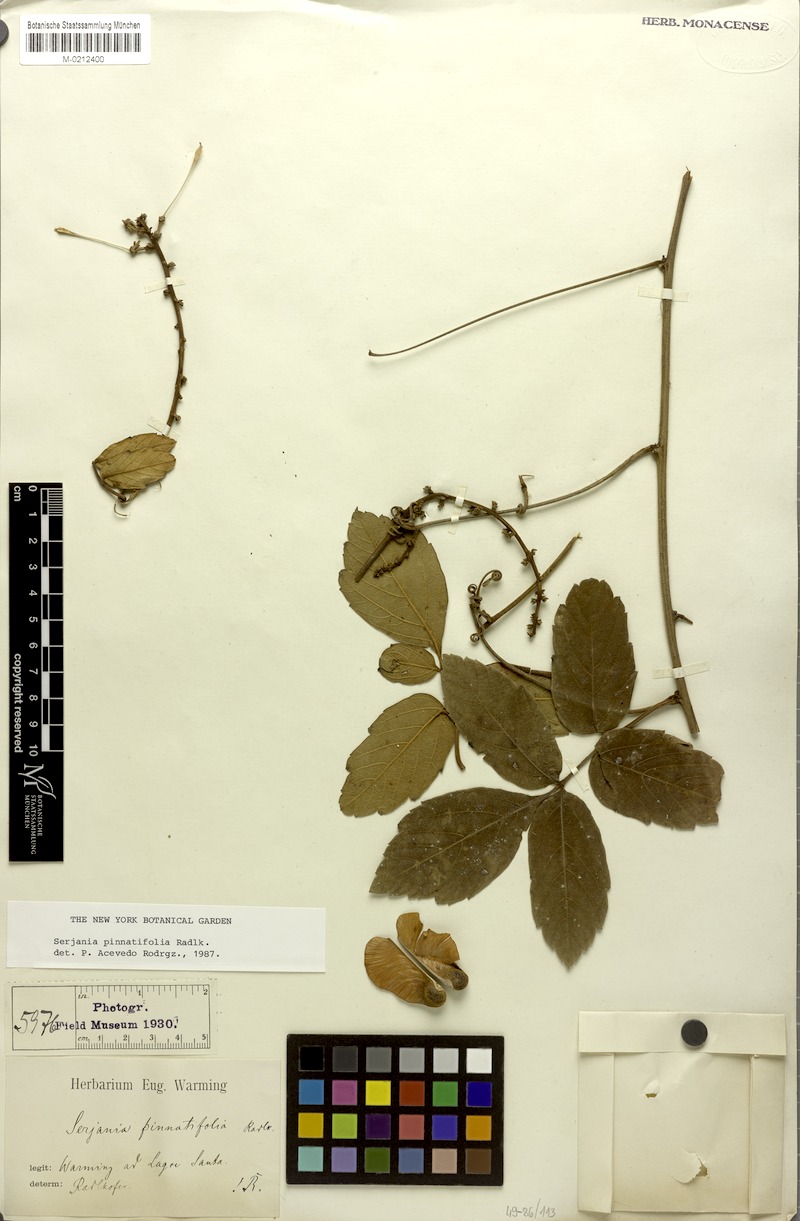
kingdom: Plantae
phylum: Tracheophyta
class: Magnoliopsida
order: Sapindales
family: Sapindaceae
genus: Serjania
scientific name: Serjania pinnatifolia
